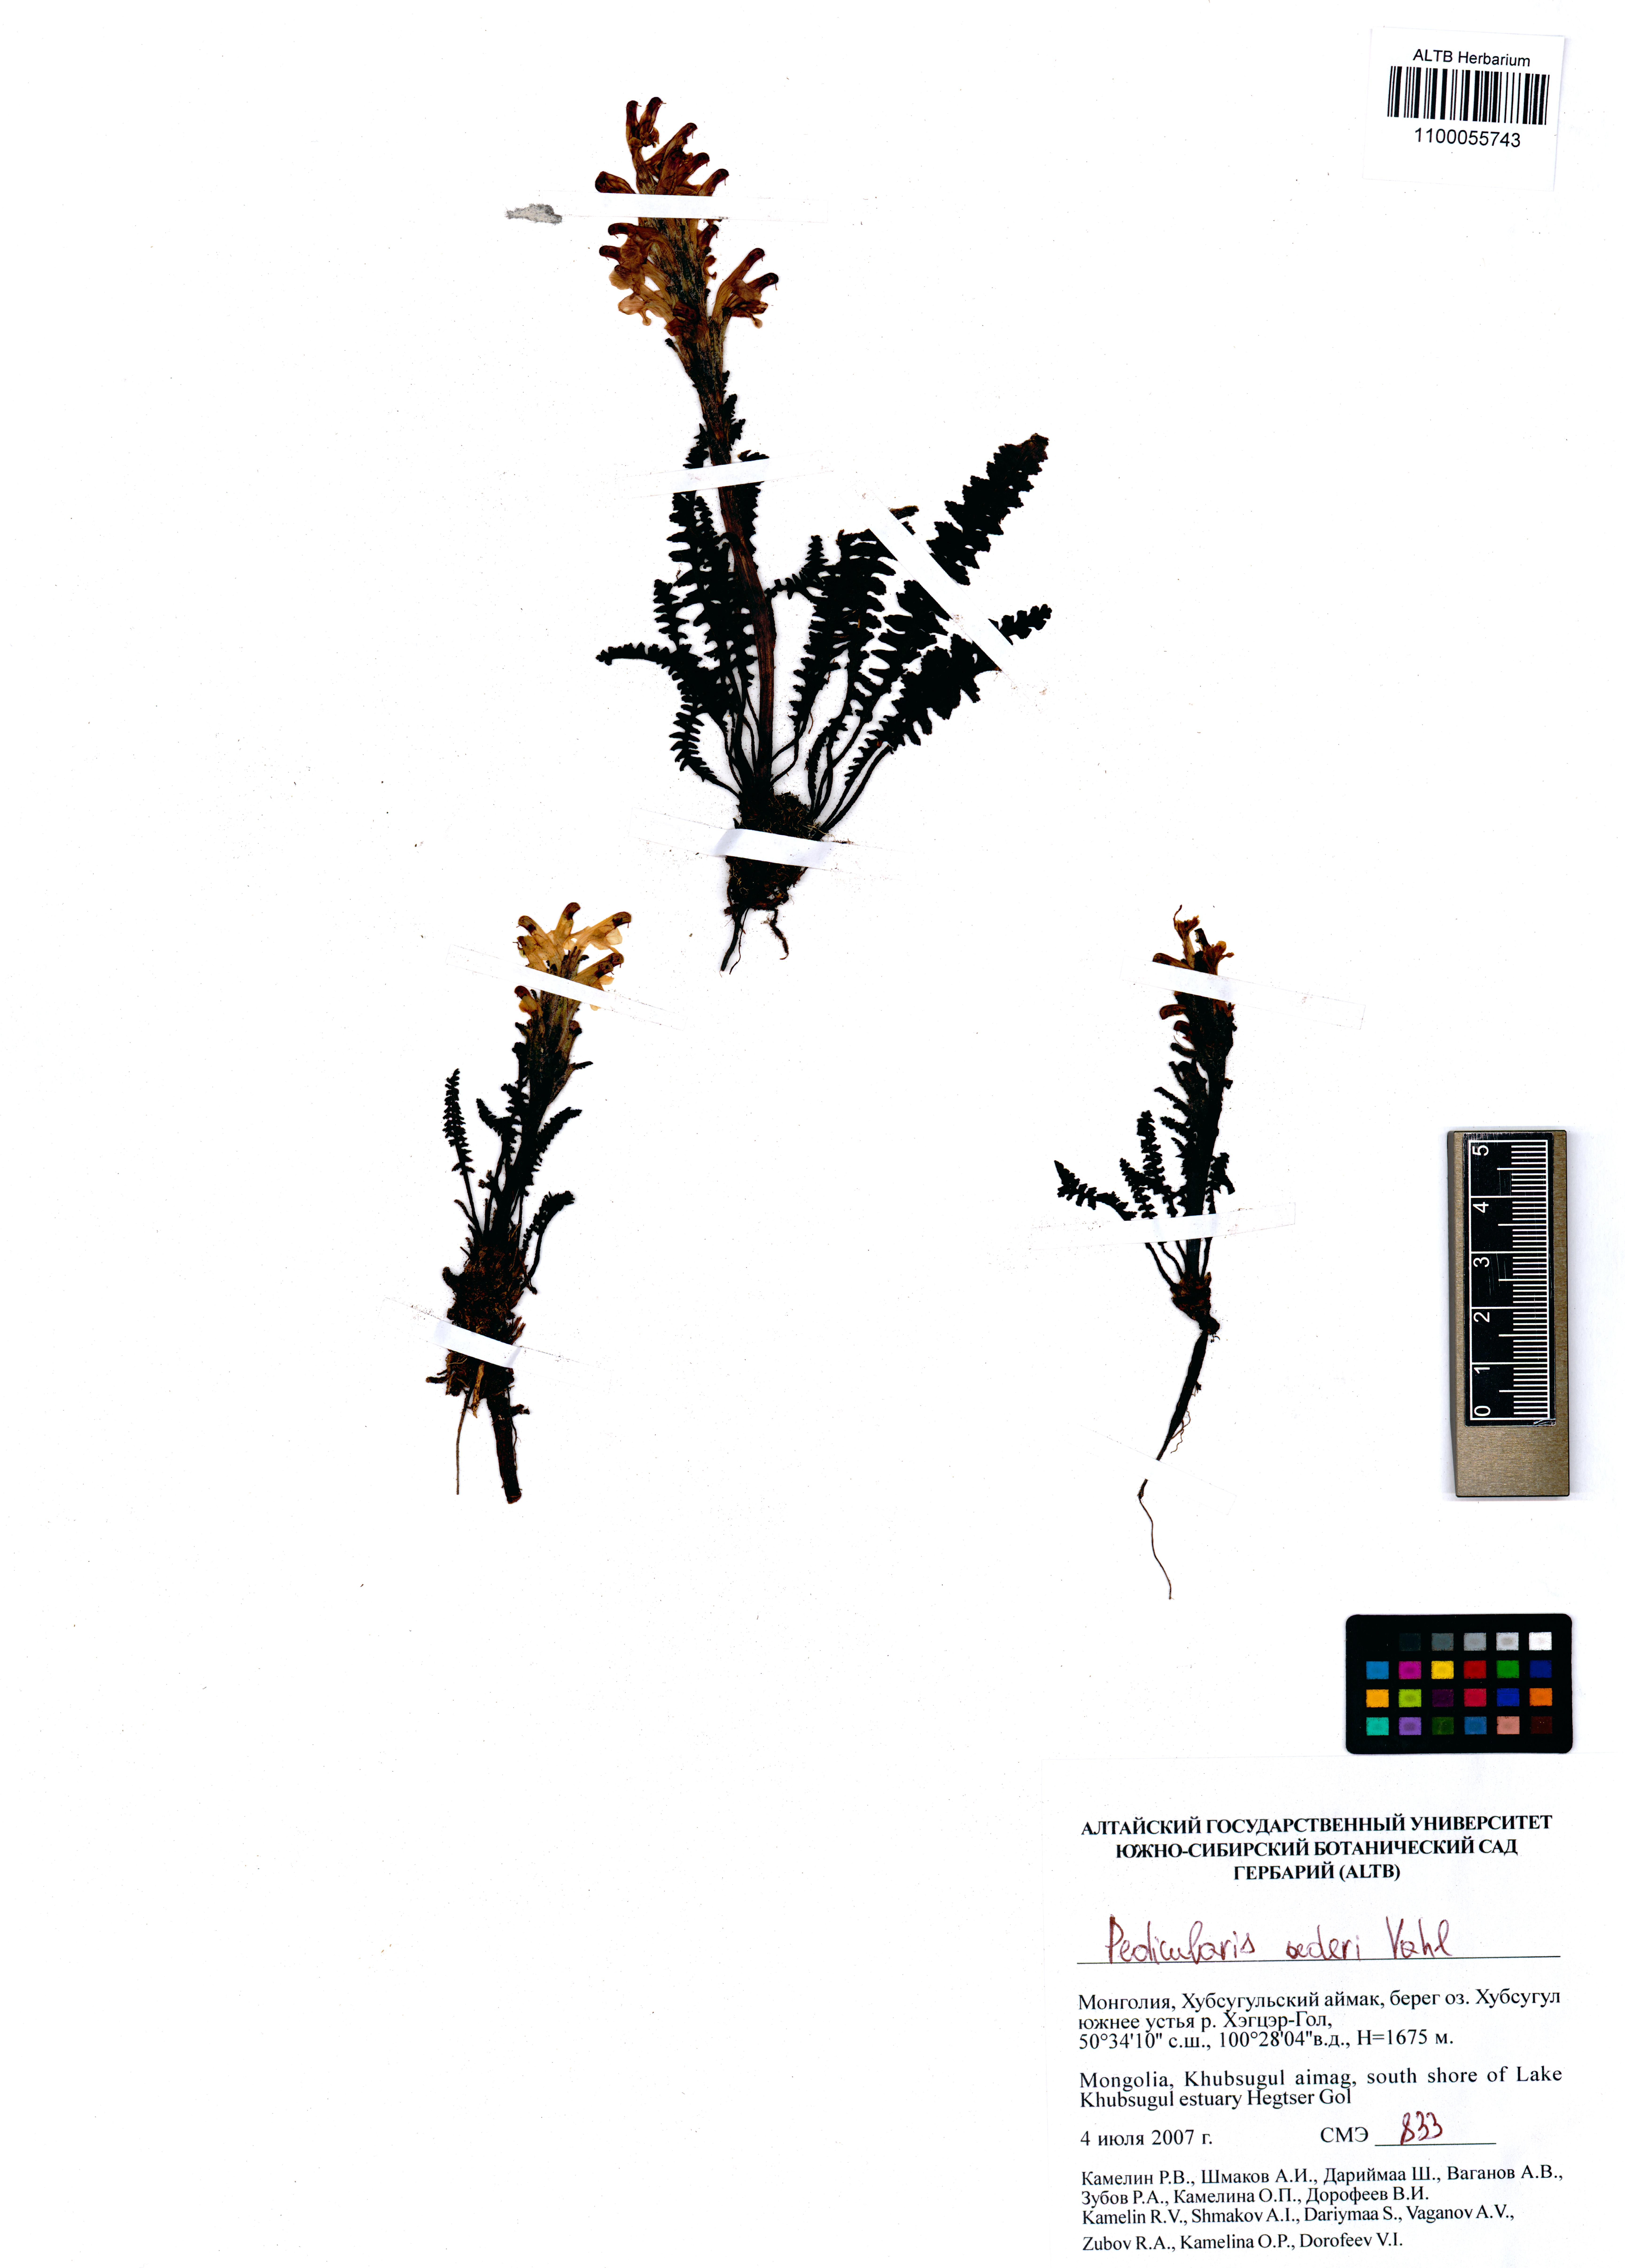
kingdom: Plantae
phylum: Tracheophyta
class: Magnoliopsida
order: Lamiales
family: Orobanchaceae
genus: Pedicularis
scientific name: Pedicularis oederi
